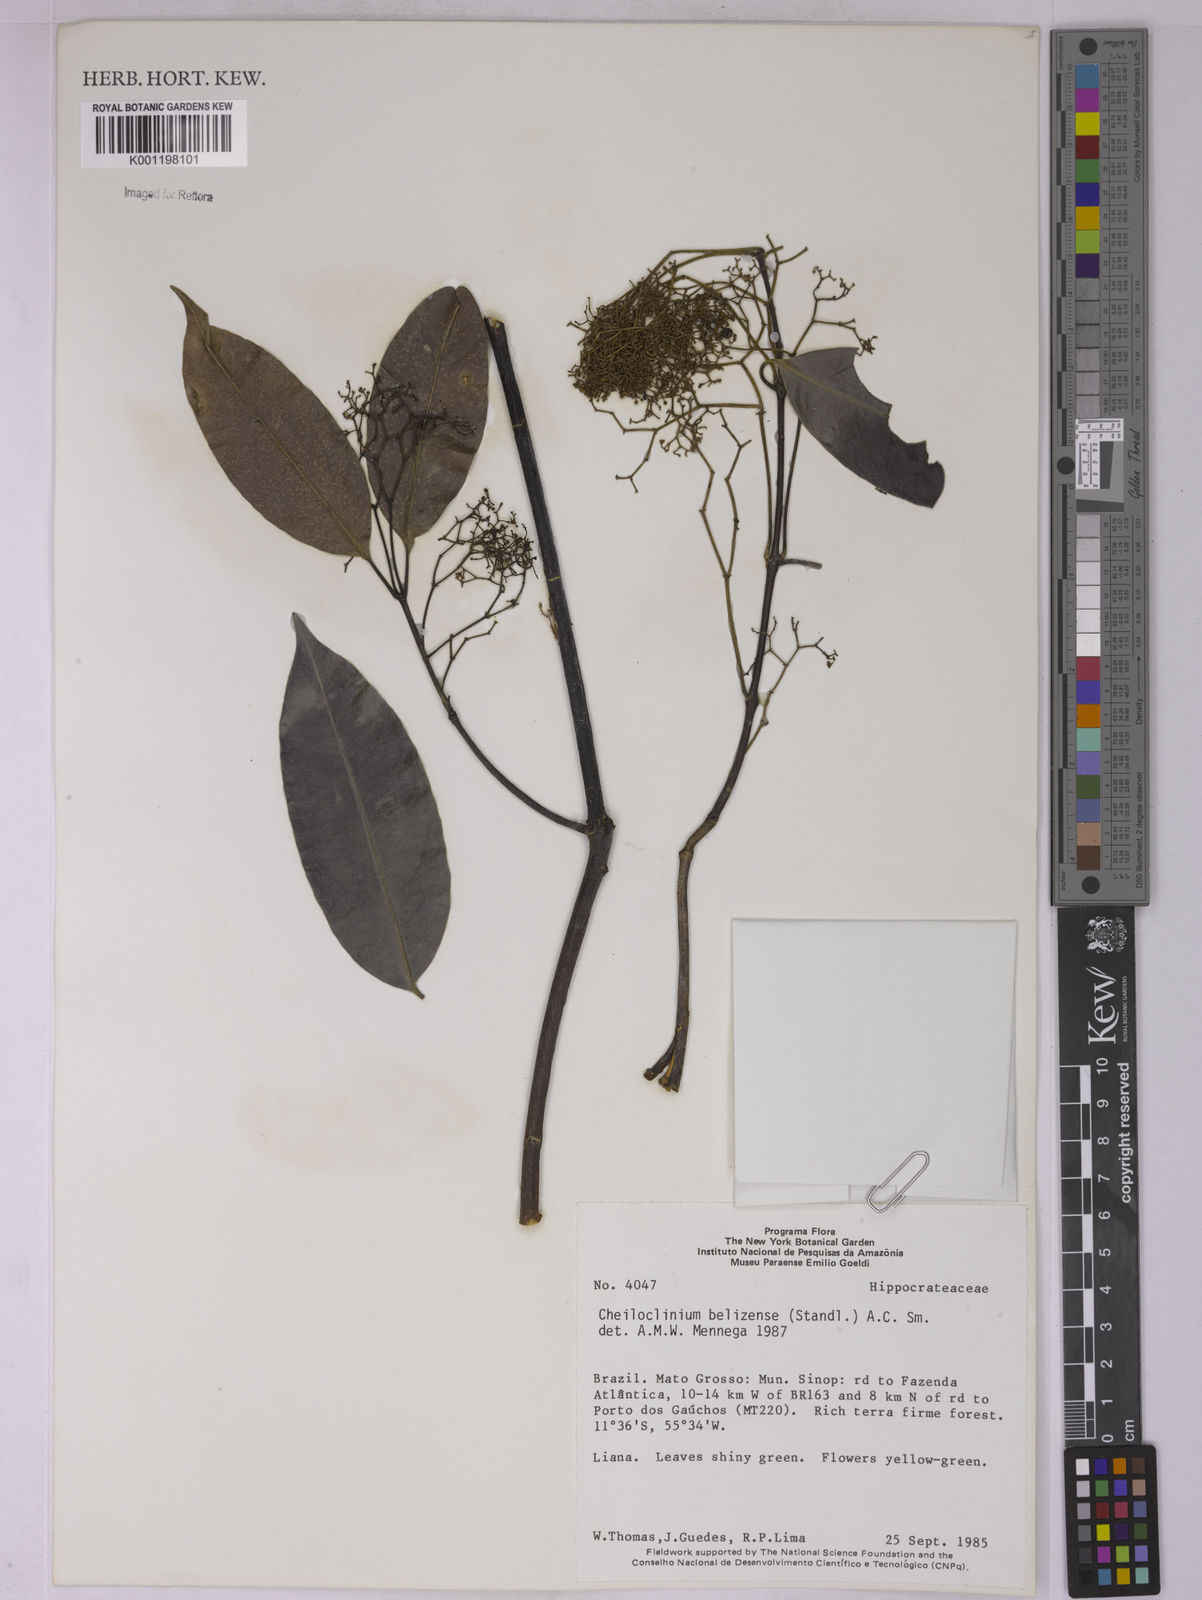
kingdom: Plantae
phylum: Tracheophyta
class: Magnoliopsida
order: Celastrales
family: Celastraceae
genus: Cheiloclinium
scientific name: Cheiloclinium belizense
